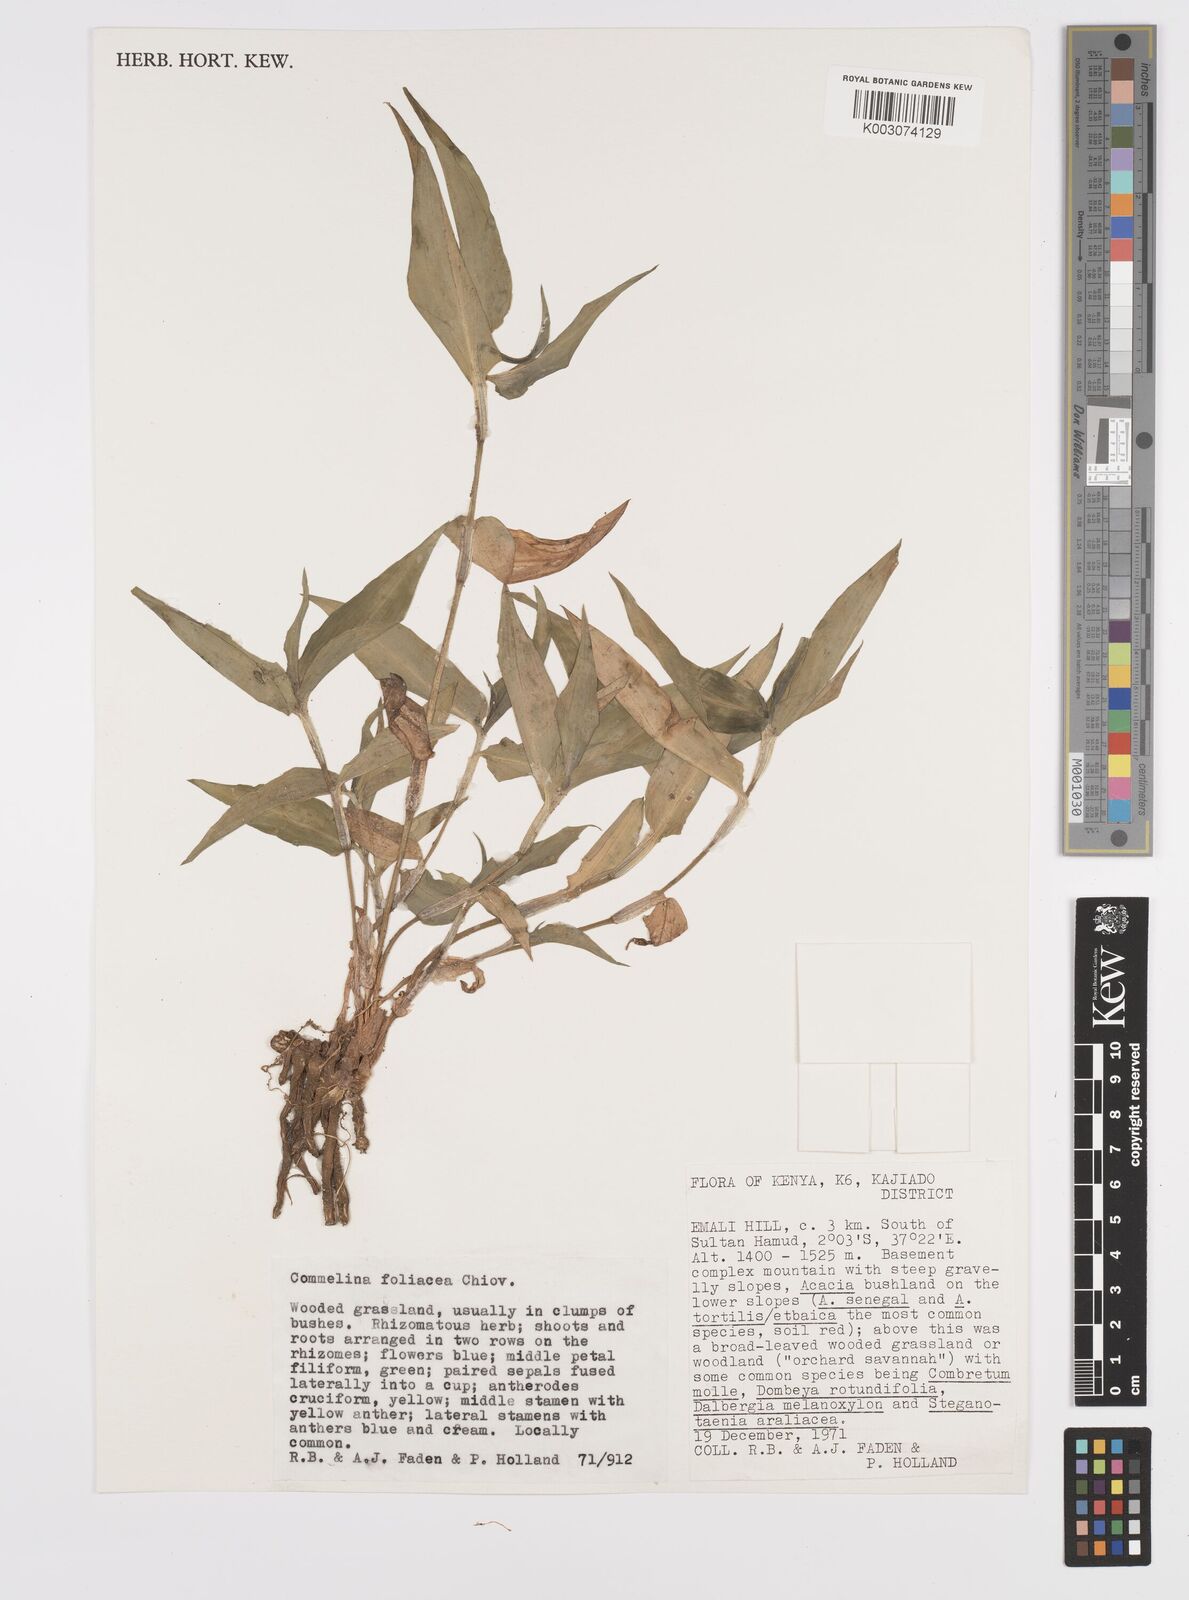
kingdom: Plantae
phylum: Tracheophyta
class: Liliopsida
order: Commelinales
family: Commelinaceae
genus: Commelina
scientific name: Commelina foliacea
